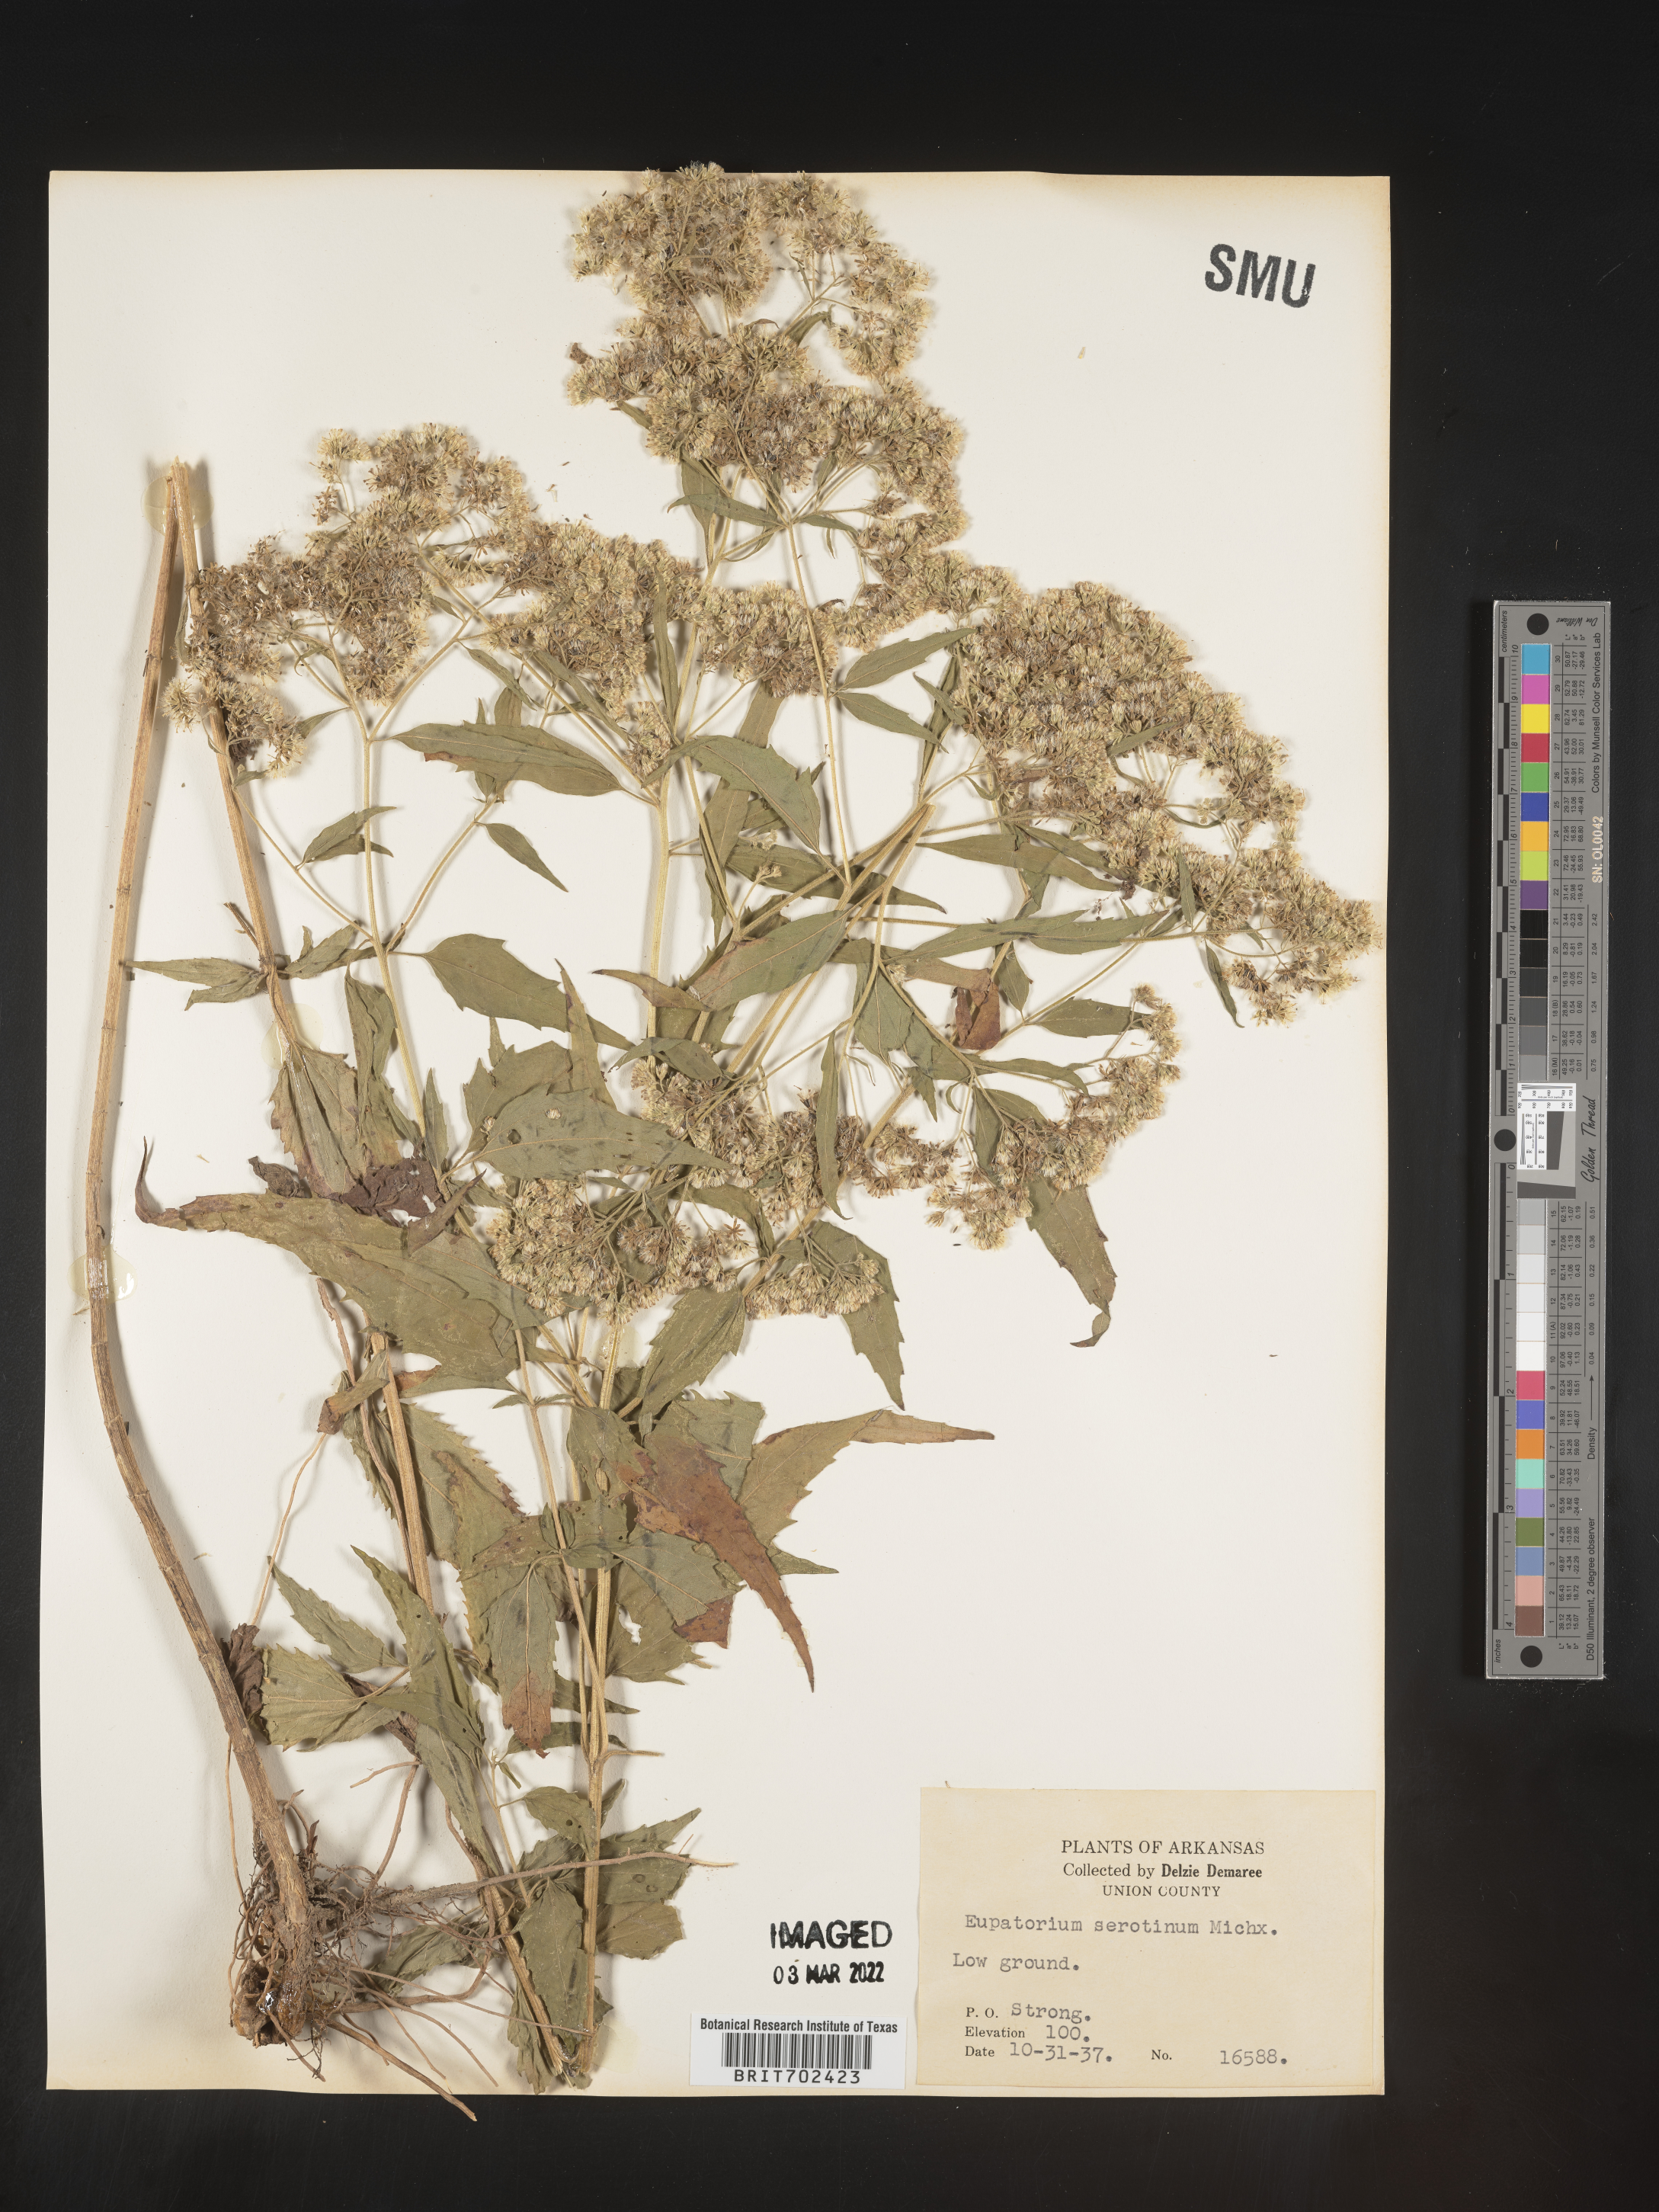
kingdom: Plantae
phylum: Tracheophyta
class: Magnoliopsida
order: Asterales
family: Asteraceae
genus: Eupatorium
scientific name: Eupatorium serotinum
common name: Late boneset
